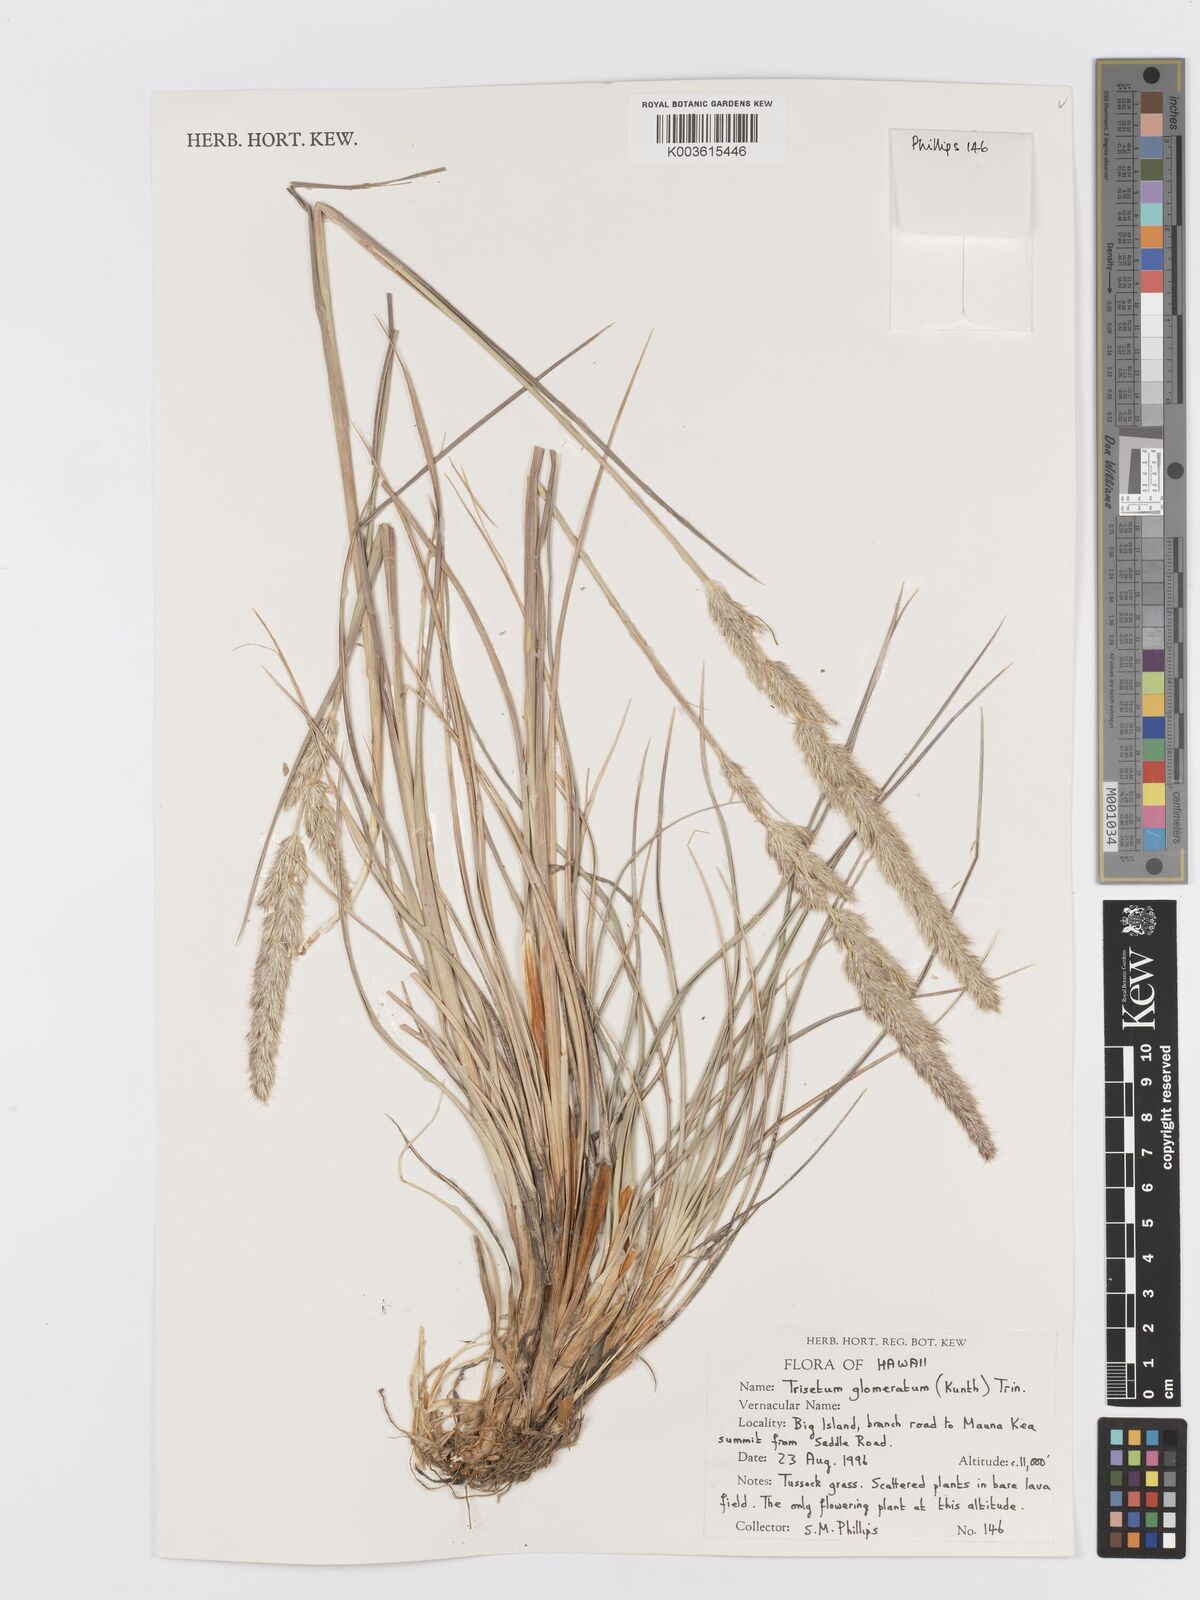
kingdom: Plantae
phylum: Tracheophyta
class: Liliopsida
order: Poales
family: Poaceae
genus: Trisetum
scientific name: Trisetum glomeratum
